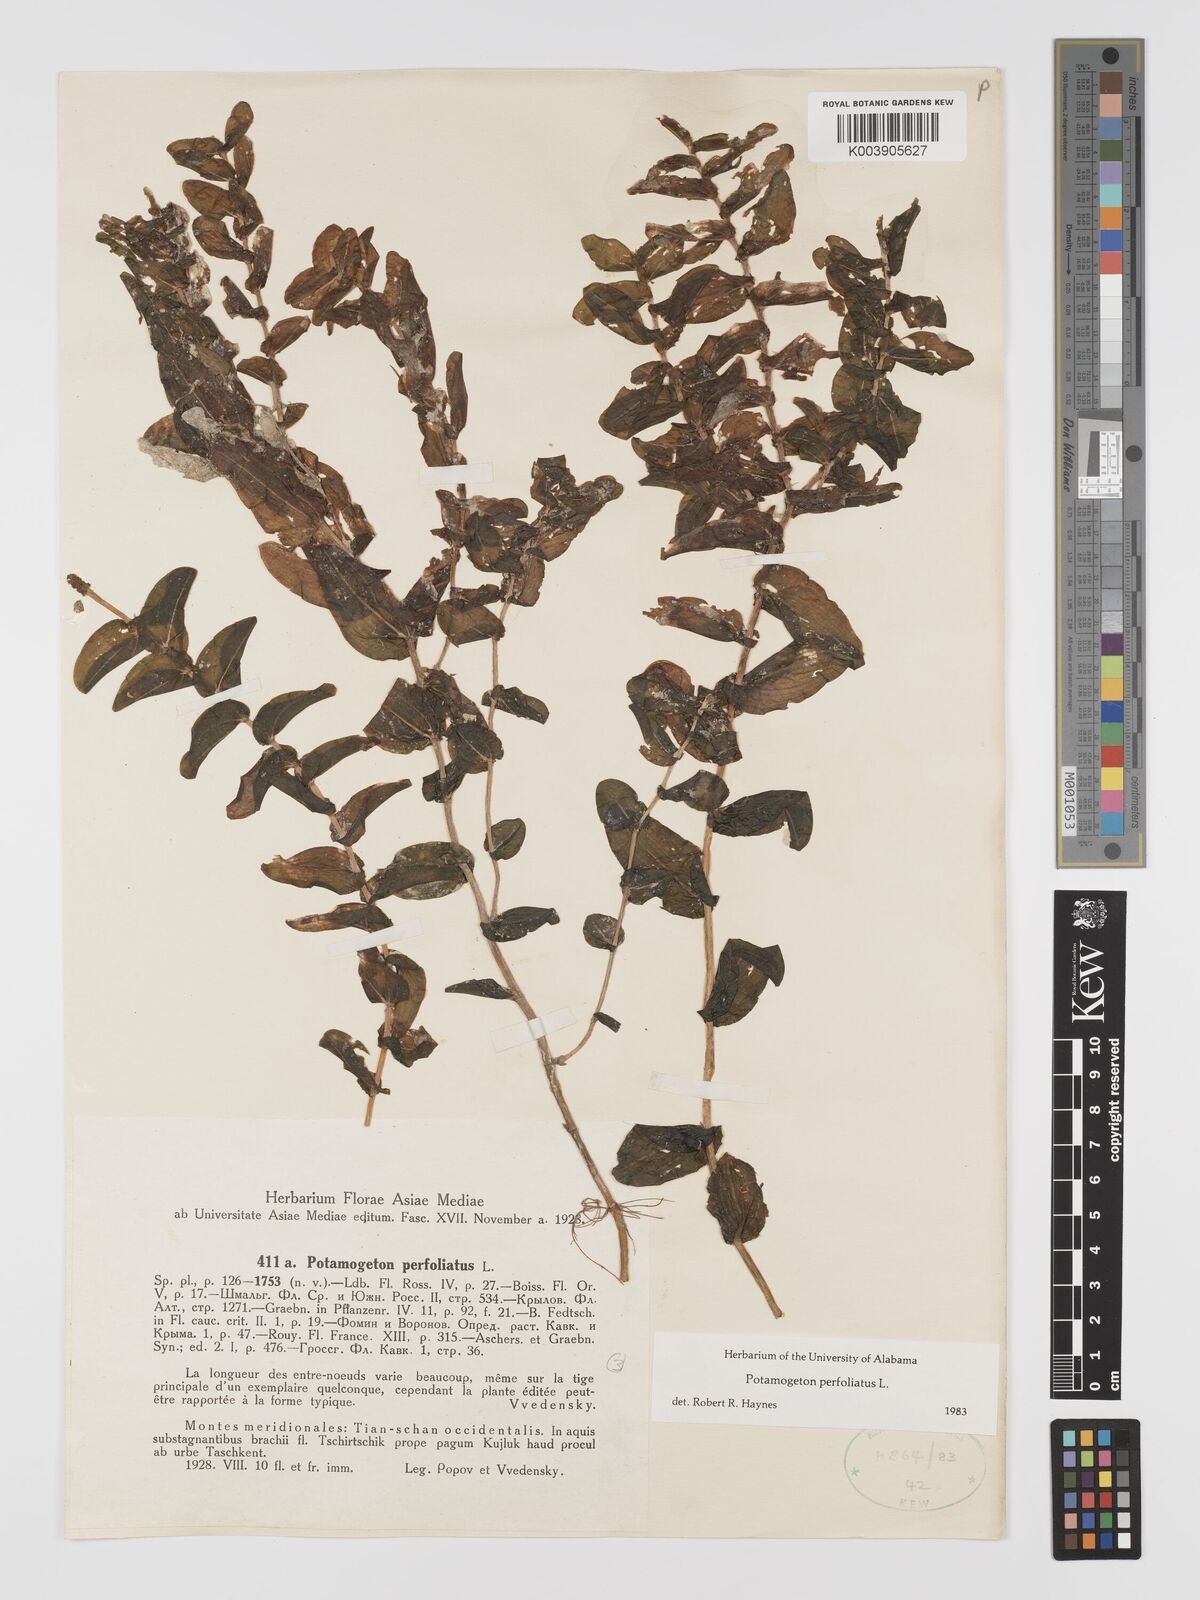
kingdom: Plantae
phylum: Tracheophyta
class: Liliopsida
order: Alismatales
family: Potamogetonaceae
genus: Potamogeton
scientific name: Potamogeton perfoliatus
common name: Perfoliate pondweed
